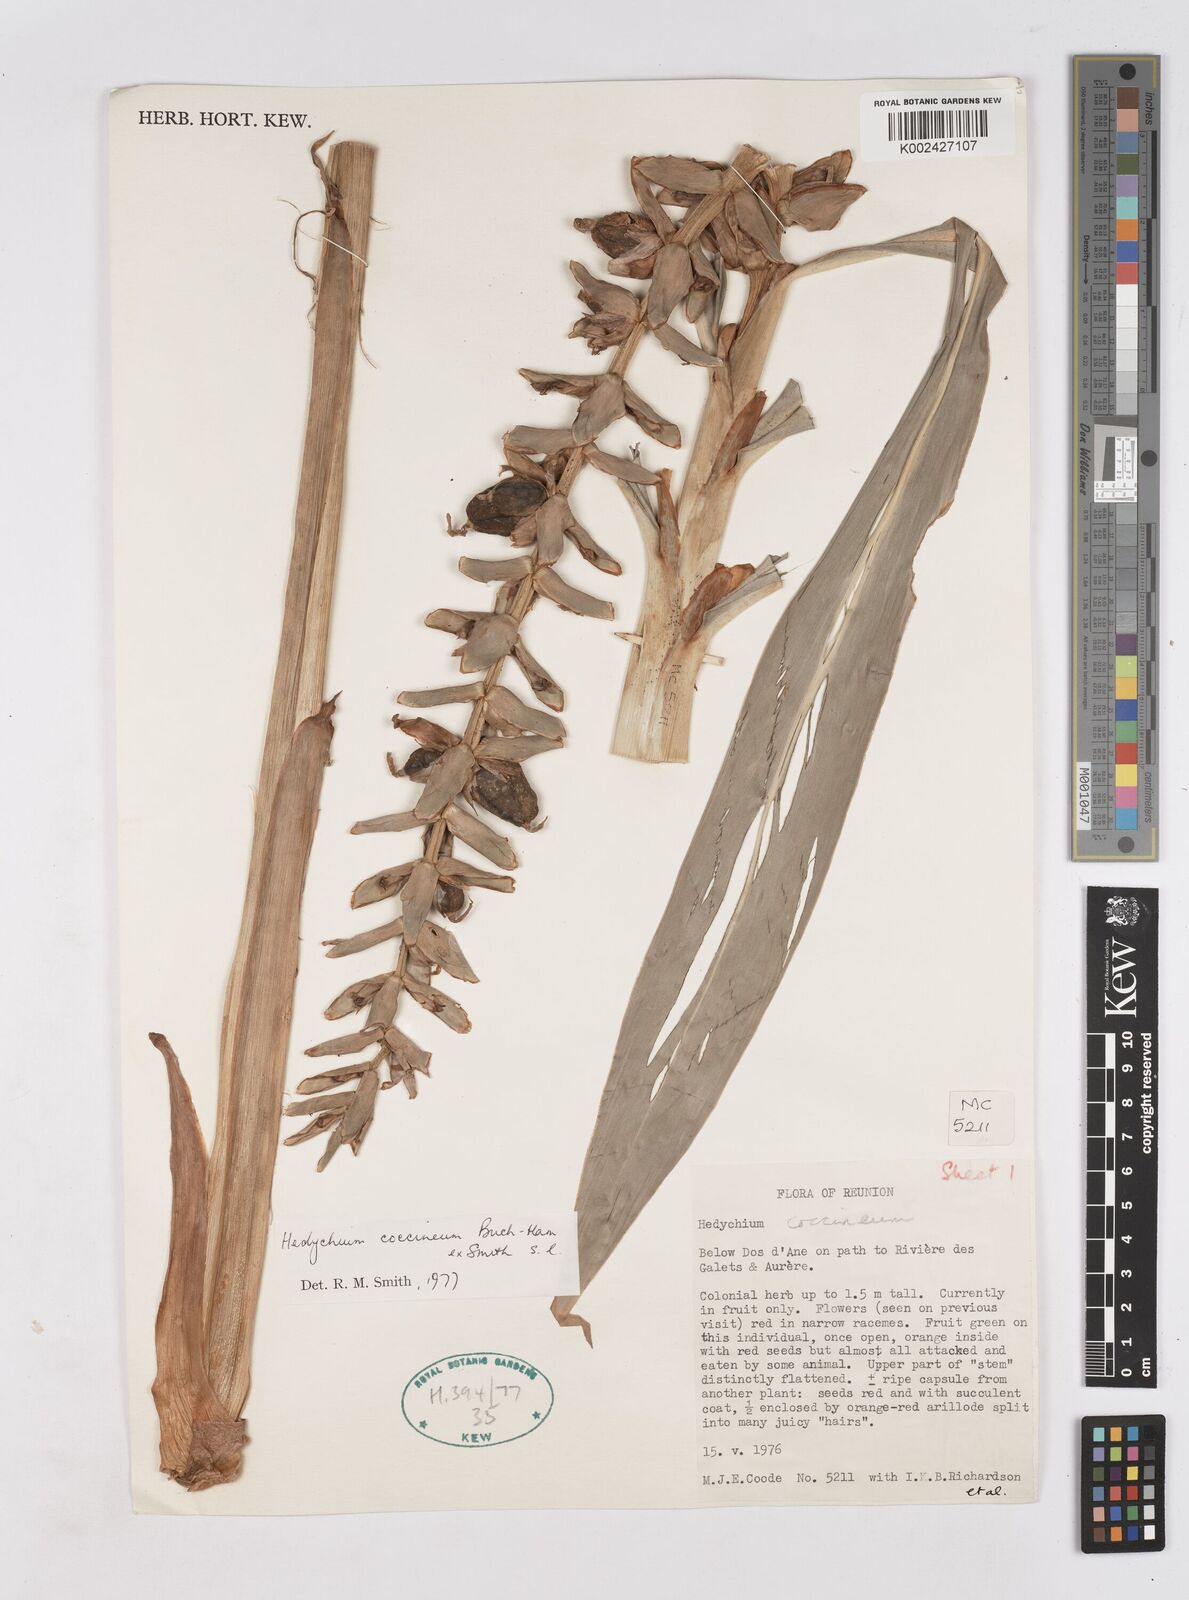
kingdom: Plantae
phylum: Tracheophyta
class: Liliopsida
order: Zingiberales
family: Zingiberaceae
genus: Hedychium
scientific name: Hedychium coccineum
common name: Red ginger-lily
